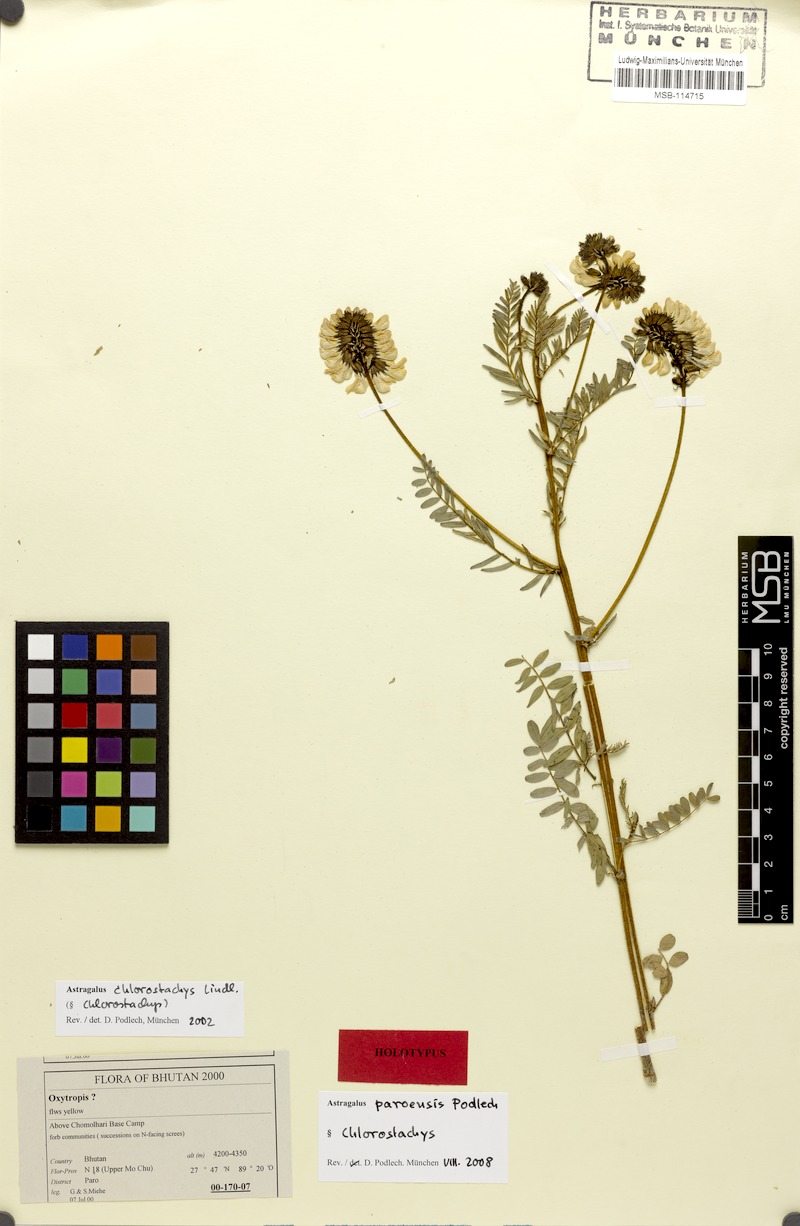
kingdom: Plantae
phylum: Tracheophyta
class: Magnoliopsida
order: Fabales
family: Fabaceae
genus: Astragalus
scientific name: Astragalus paroensis
